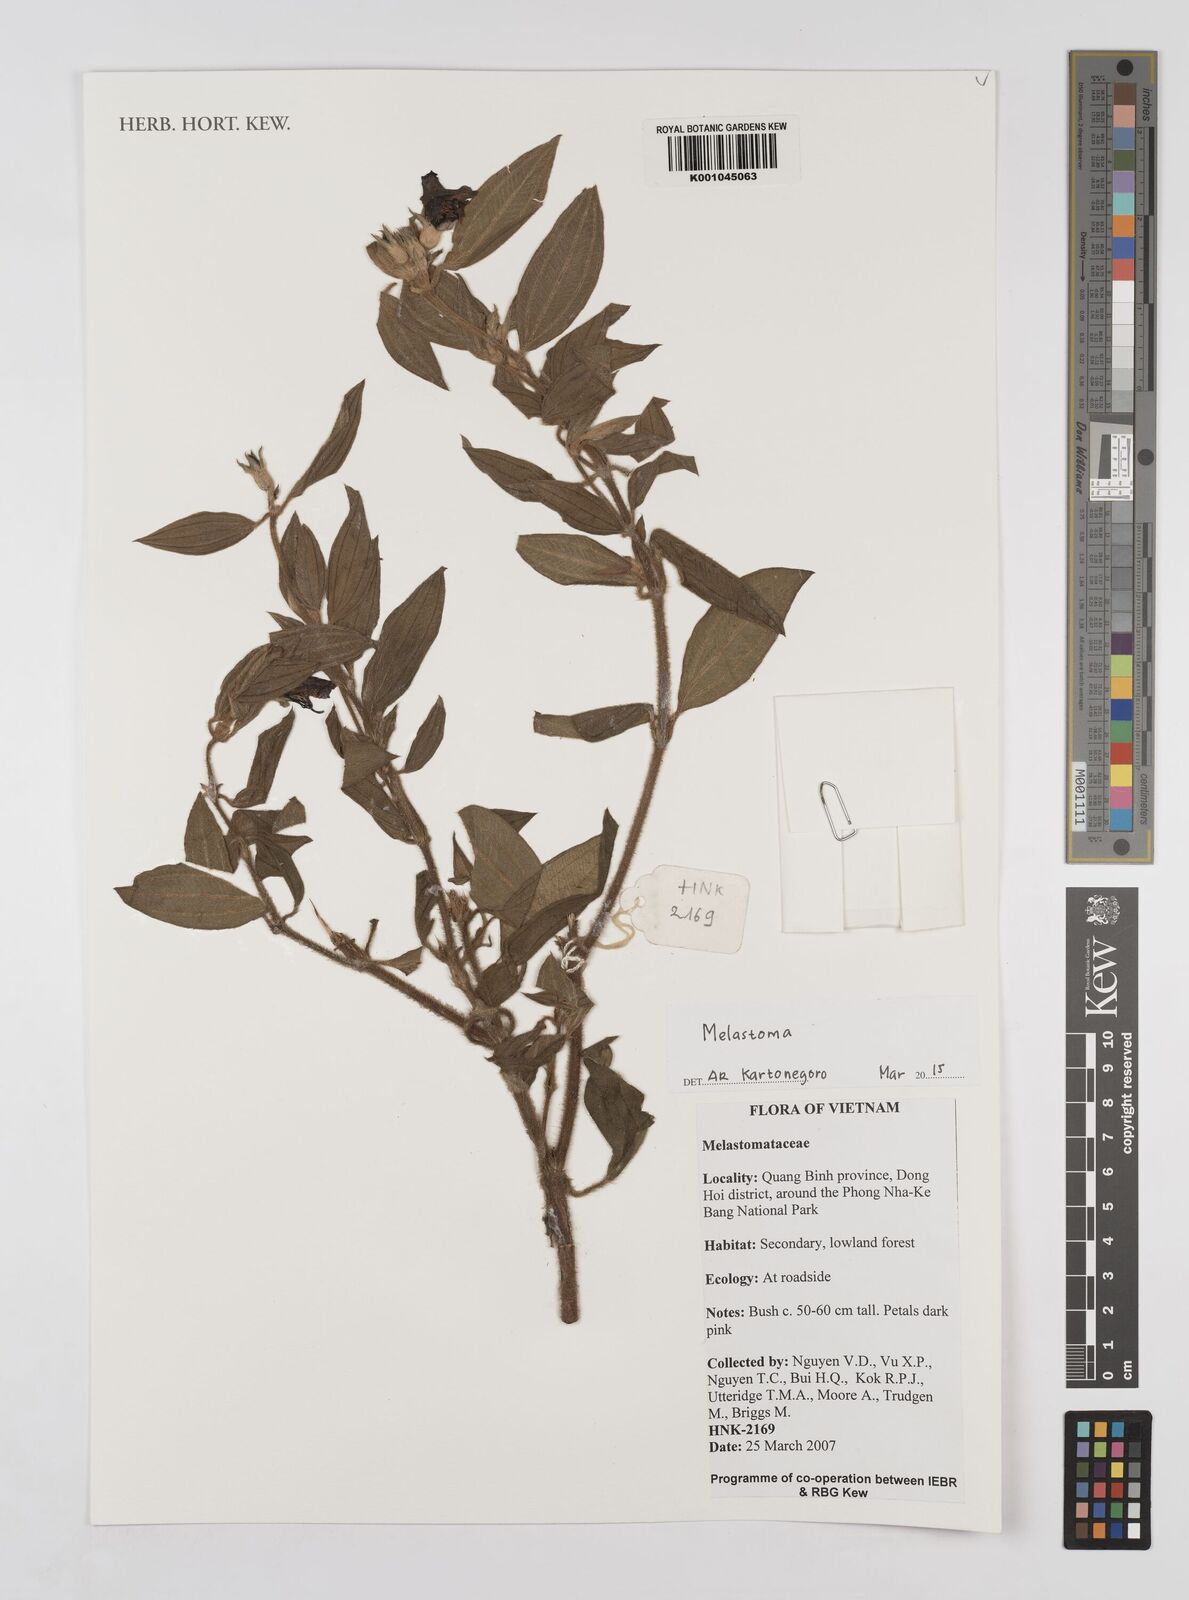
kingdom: Plantae
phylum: Tracheophyta
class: Magnoliopsida
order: Myrtales
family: Melastomataceae
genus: Melastoma
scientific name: Melastoma
